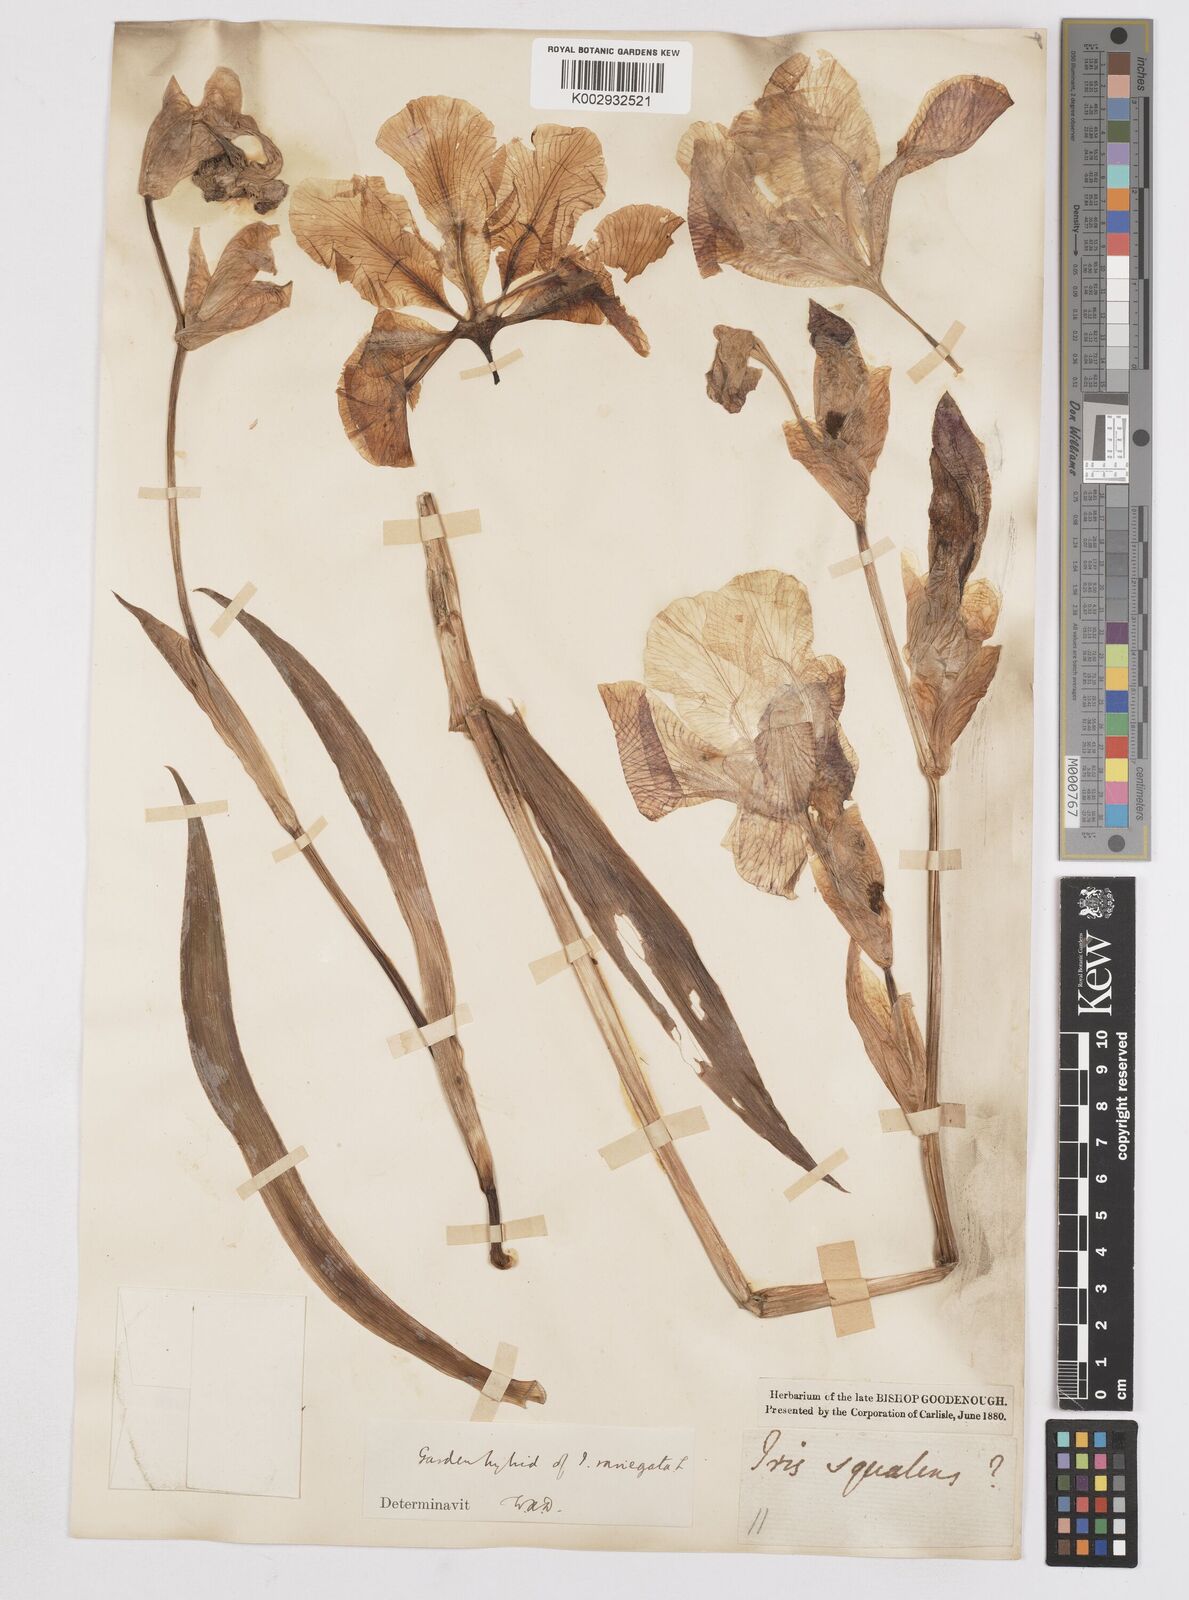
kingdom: Plantae
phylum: Tracheophyta
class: Liliopsida
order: Asparagales
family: Iridaceae
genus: Iris
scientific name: Iris
